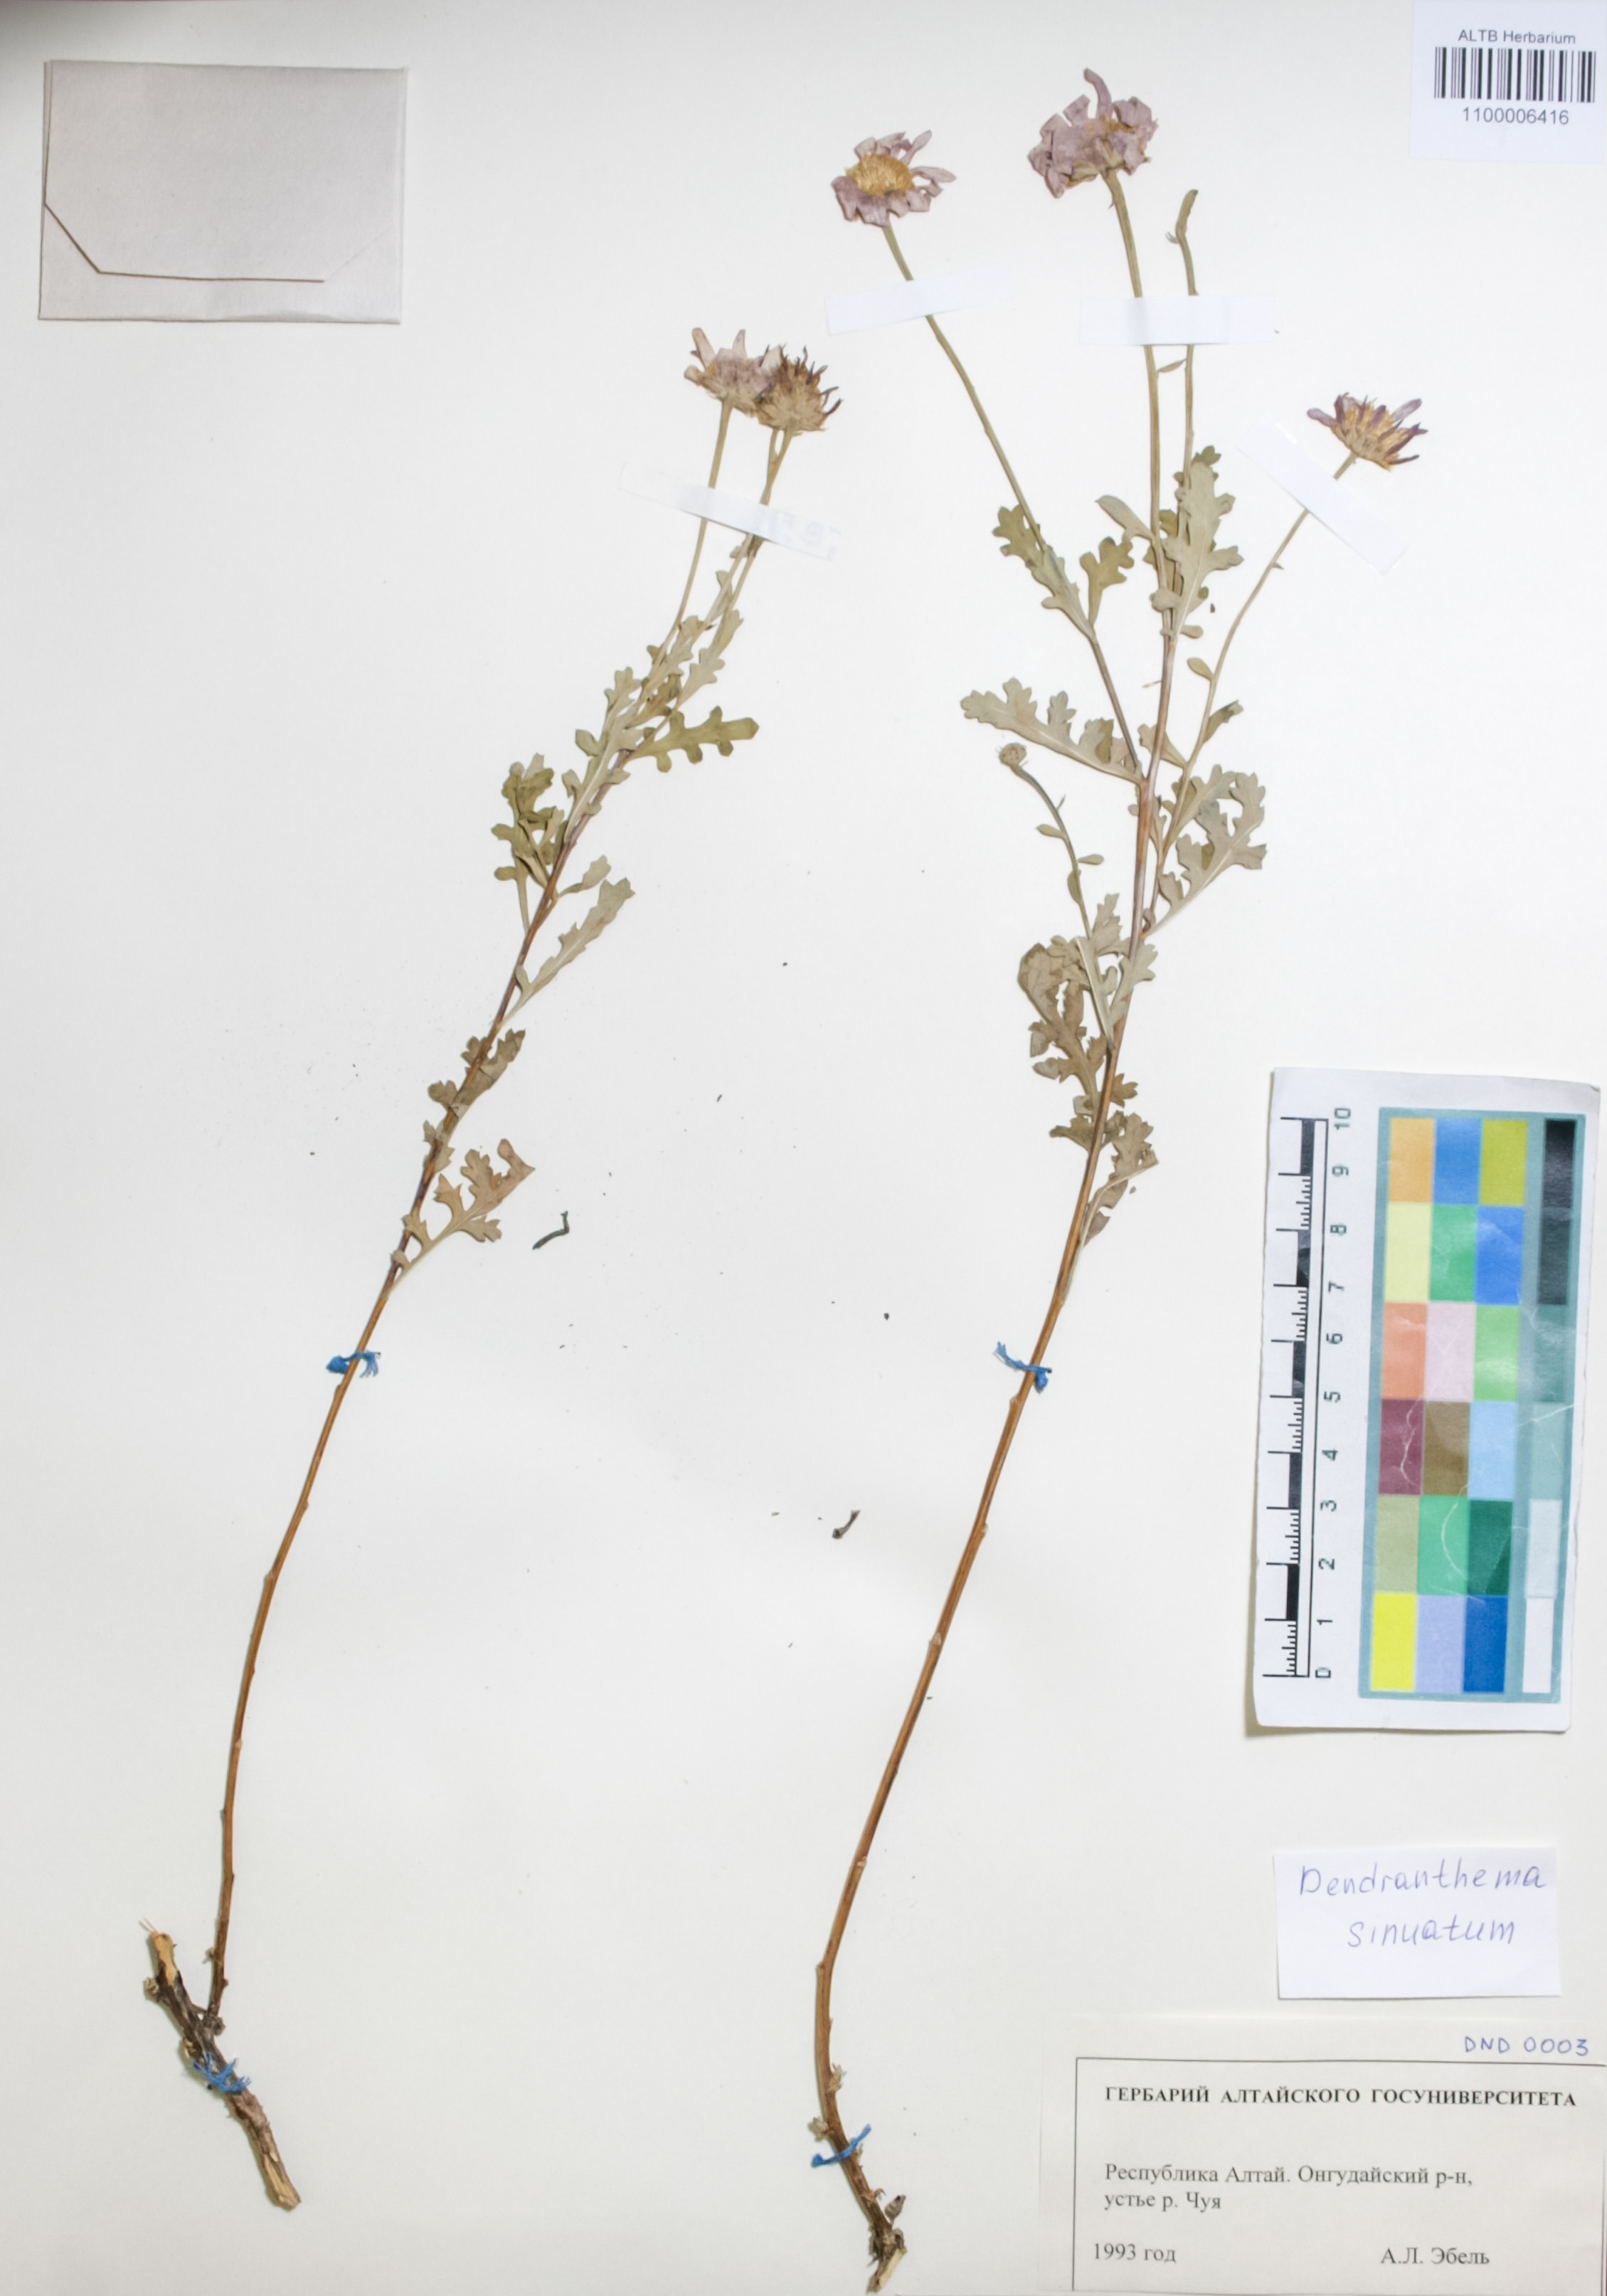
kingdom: Plantae
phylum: Tracheophyta
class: Magnoliopsida
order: Asterales
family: Asteraceae
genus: Chrysanthemum
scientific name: Chrysanthemum sinuatum
